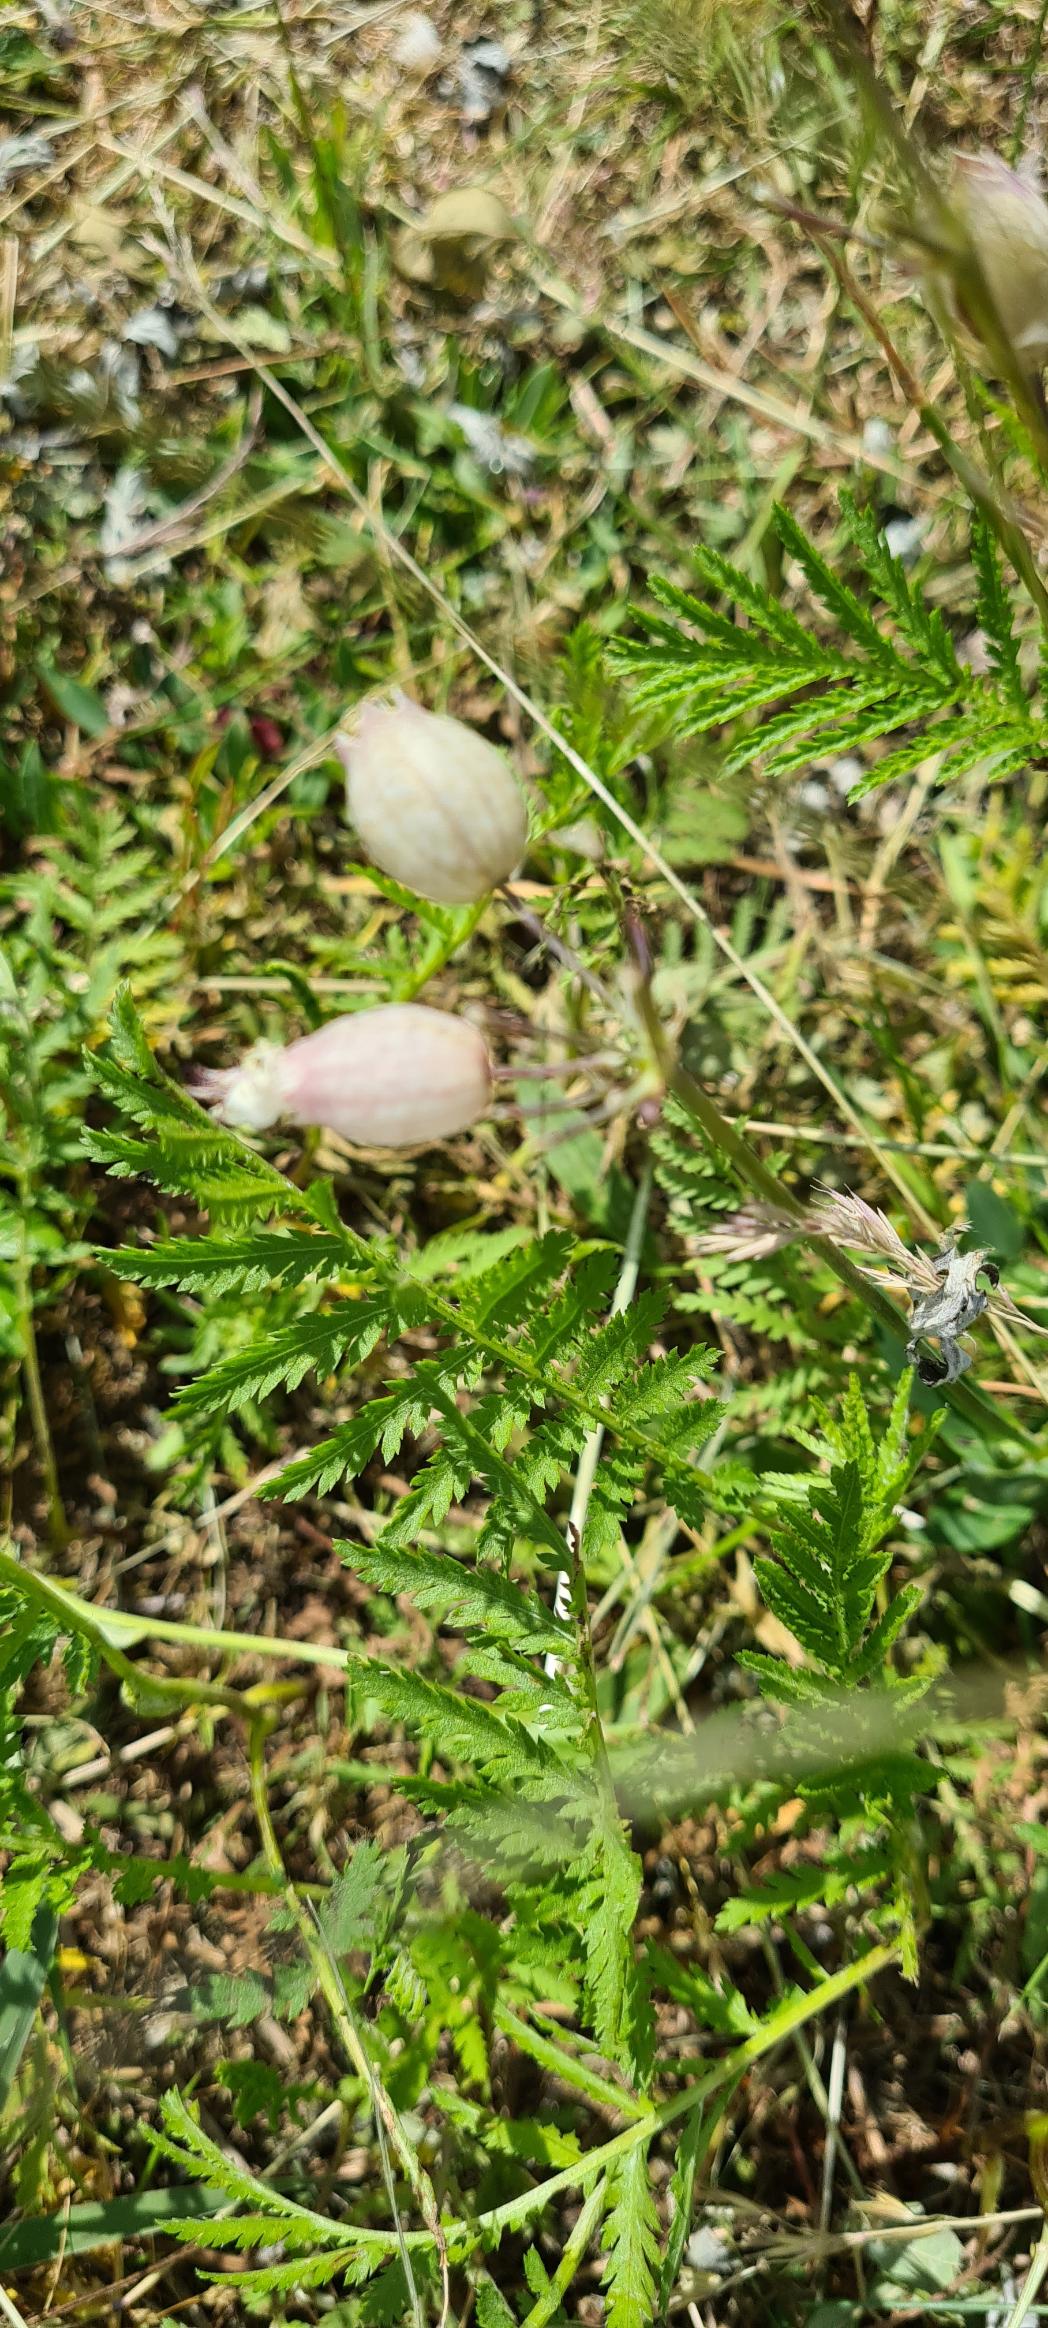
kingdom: Plantae
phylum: Tracheophyta
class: Magnoliopsida
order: Caryophyllales
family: Caryophyllaceae
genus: Silene
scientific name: Silene vulgaris
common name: Blæresmælde
